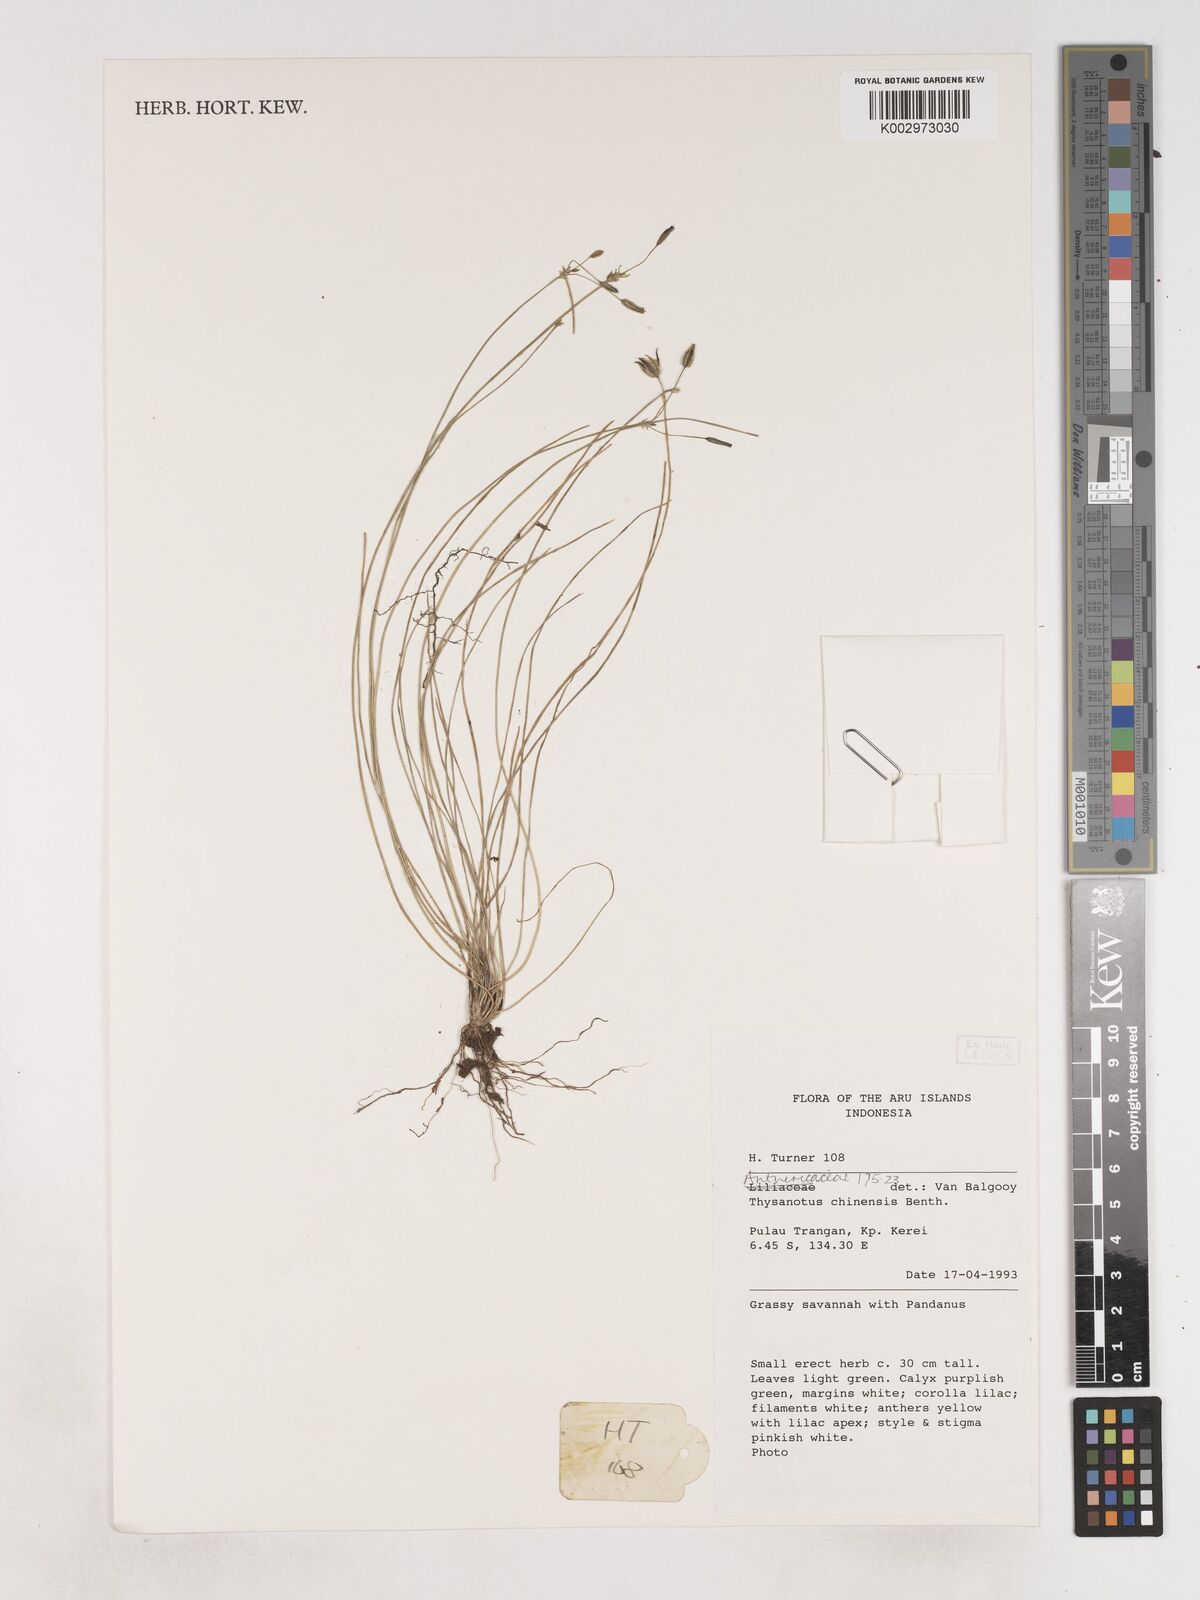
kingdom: Plantae
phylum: Tracheophyta
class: Liliopsida
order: Asparagales
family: Asparagaceae
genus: Thysanotus
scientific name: Thysanotus chinensis
